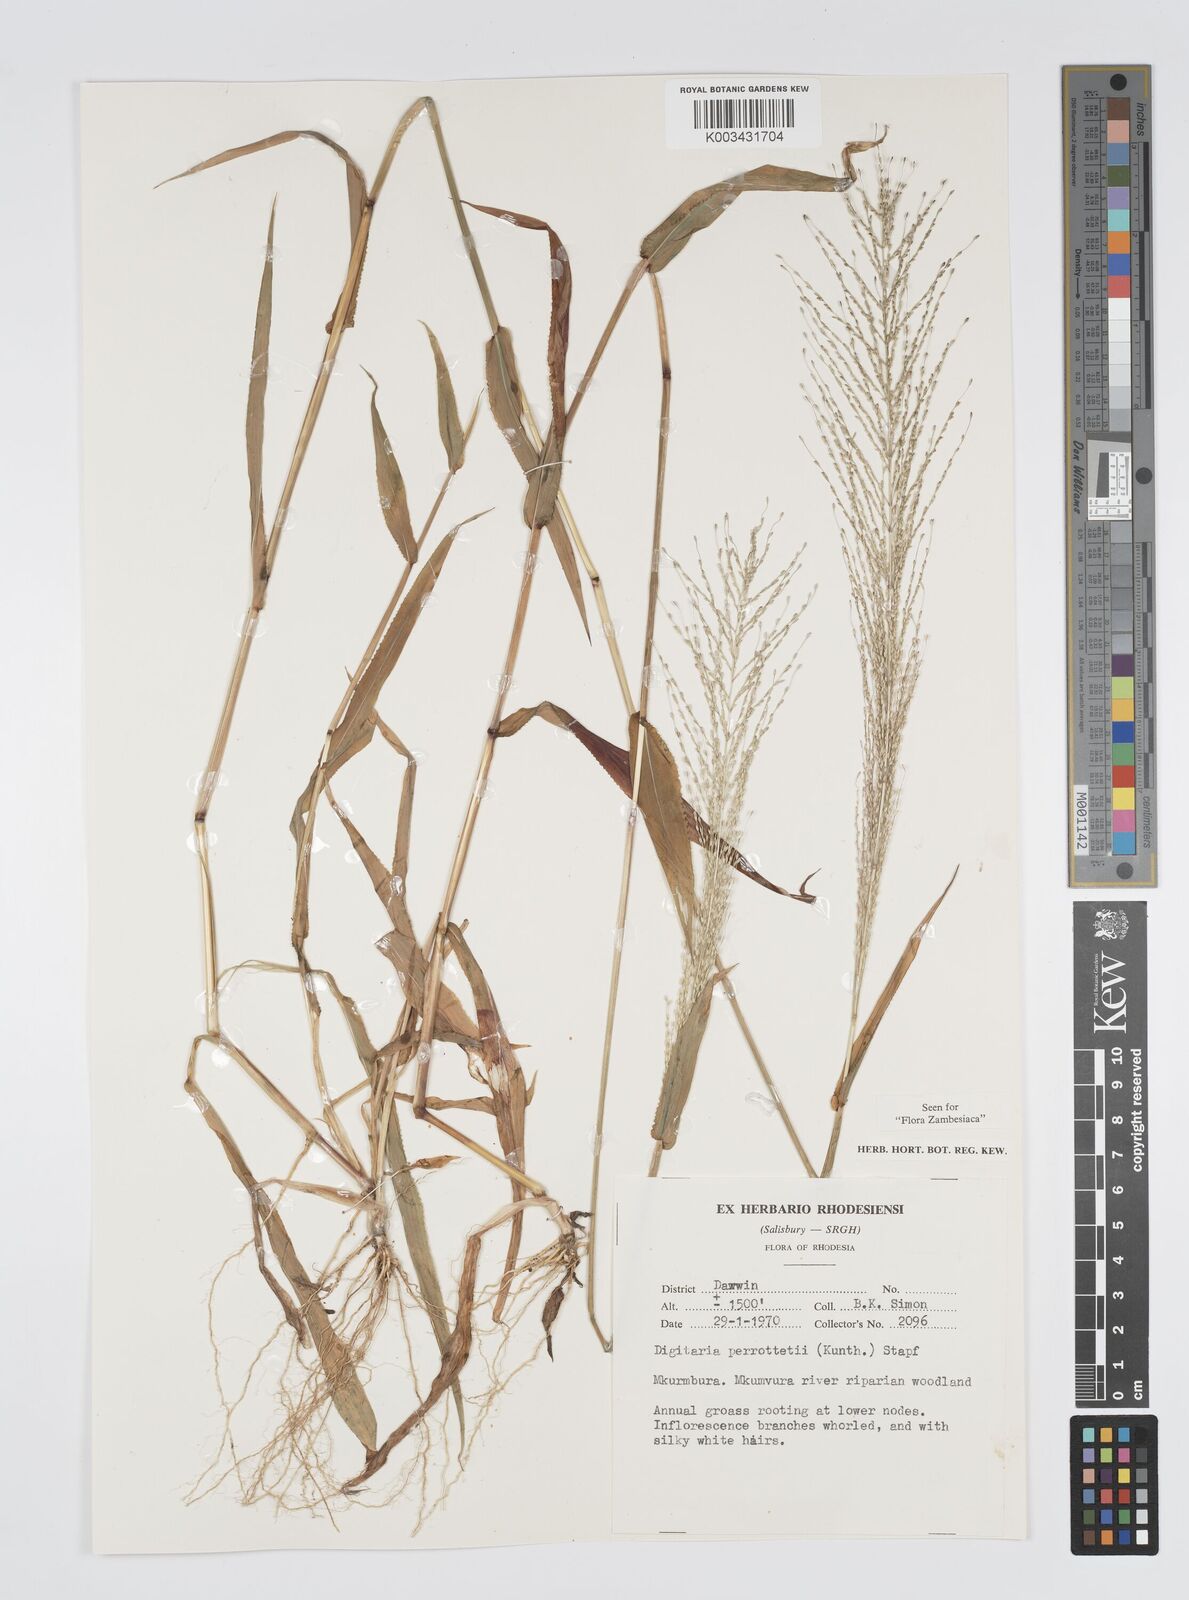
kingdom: Plantae
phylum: Tracheophyta
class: Liliopsida
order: Poales
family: Poaceae
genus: Digitaria
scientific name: Digitaria perrottetii
